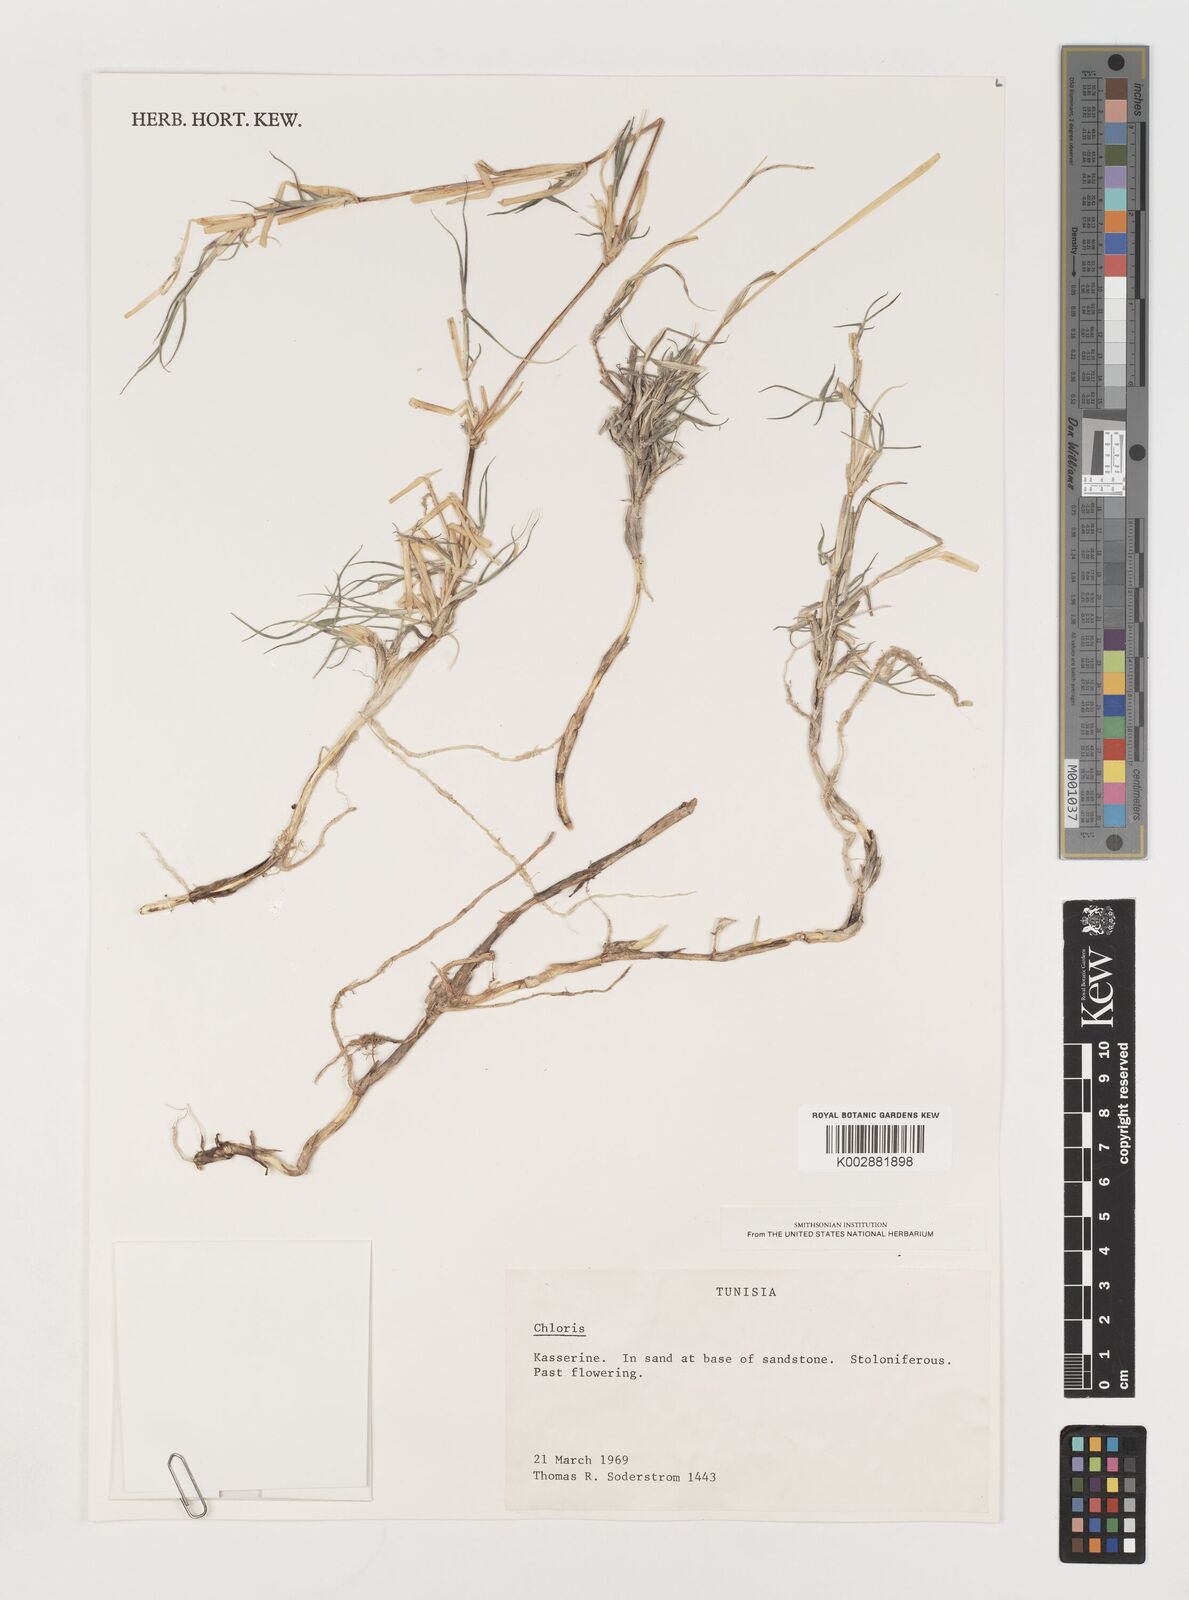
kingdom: Plantae
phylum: Tracheophyta
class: Liliopsida
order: Poales
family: Poaceae
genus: Chloris
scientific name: Chloris
